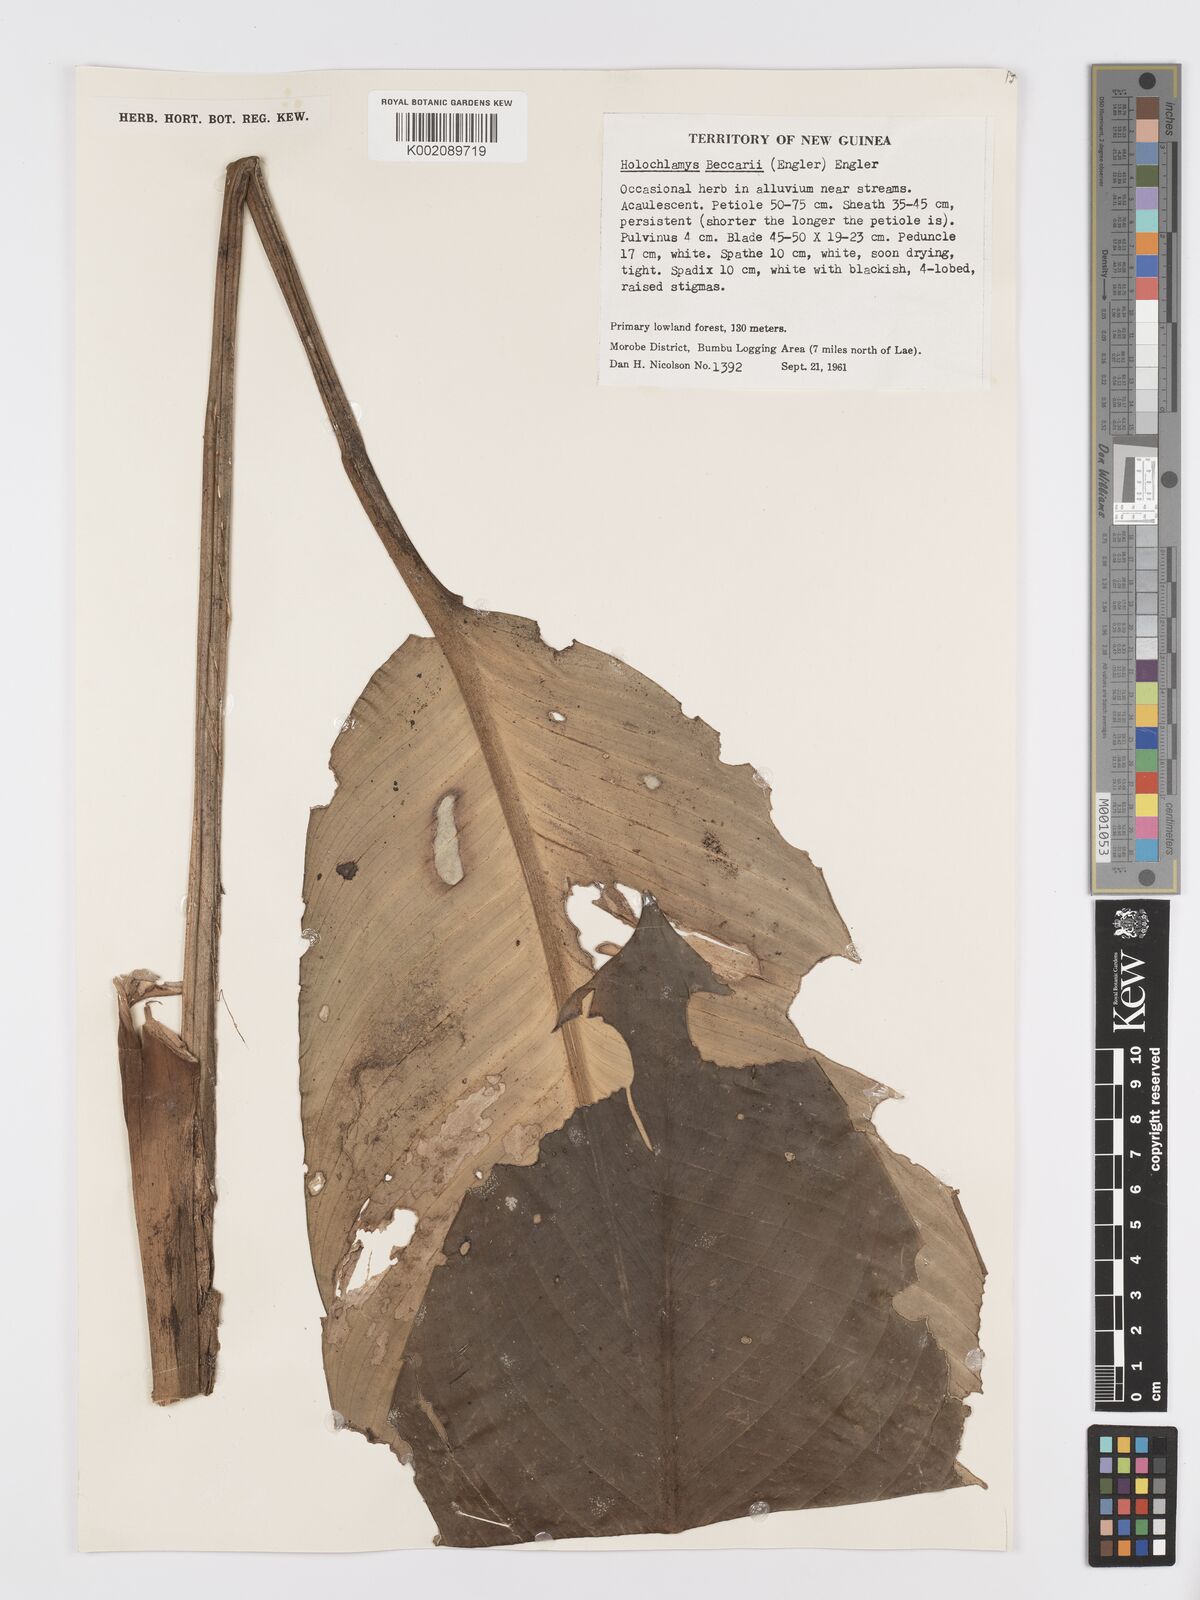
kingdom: Plantae
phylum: Tracheophyta
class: Liliopsida
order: Alismatales
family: Araceae
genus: Holochlamys
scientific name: Holochlamys beccarii
